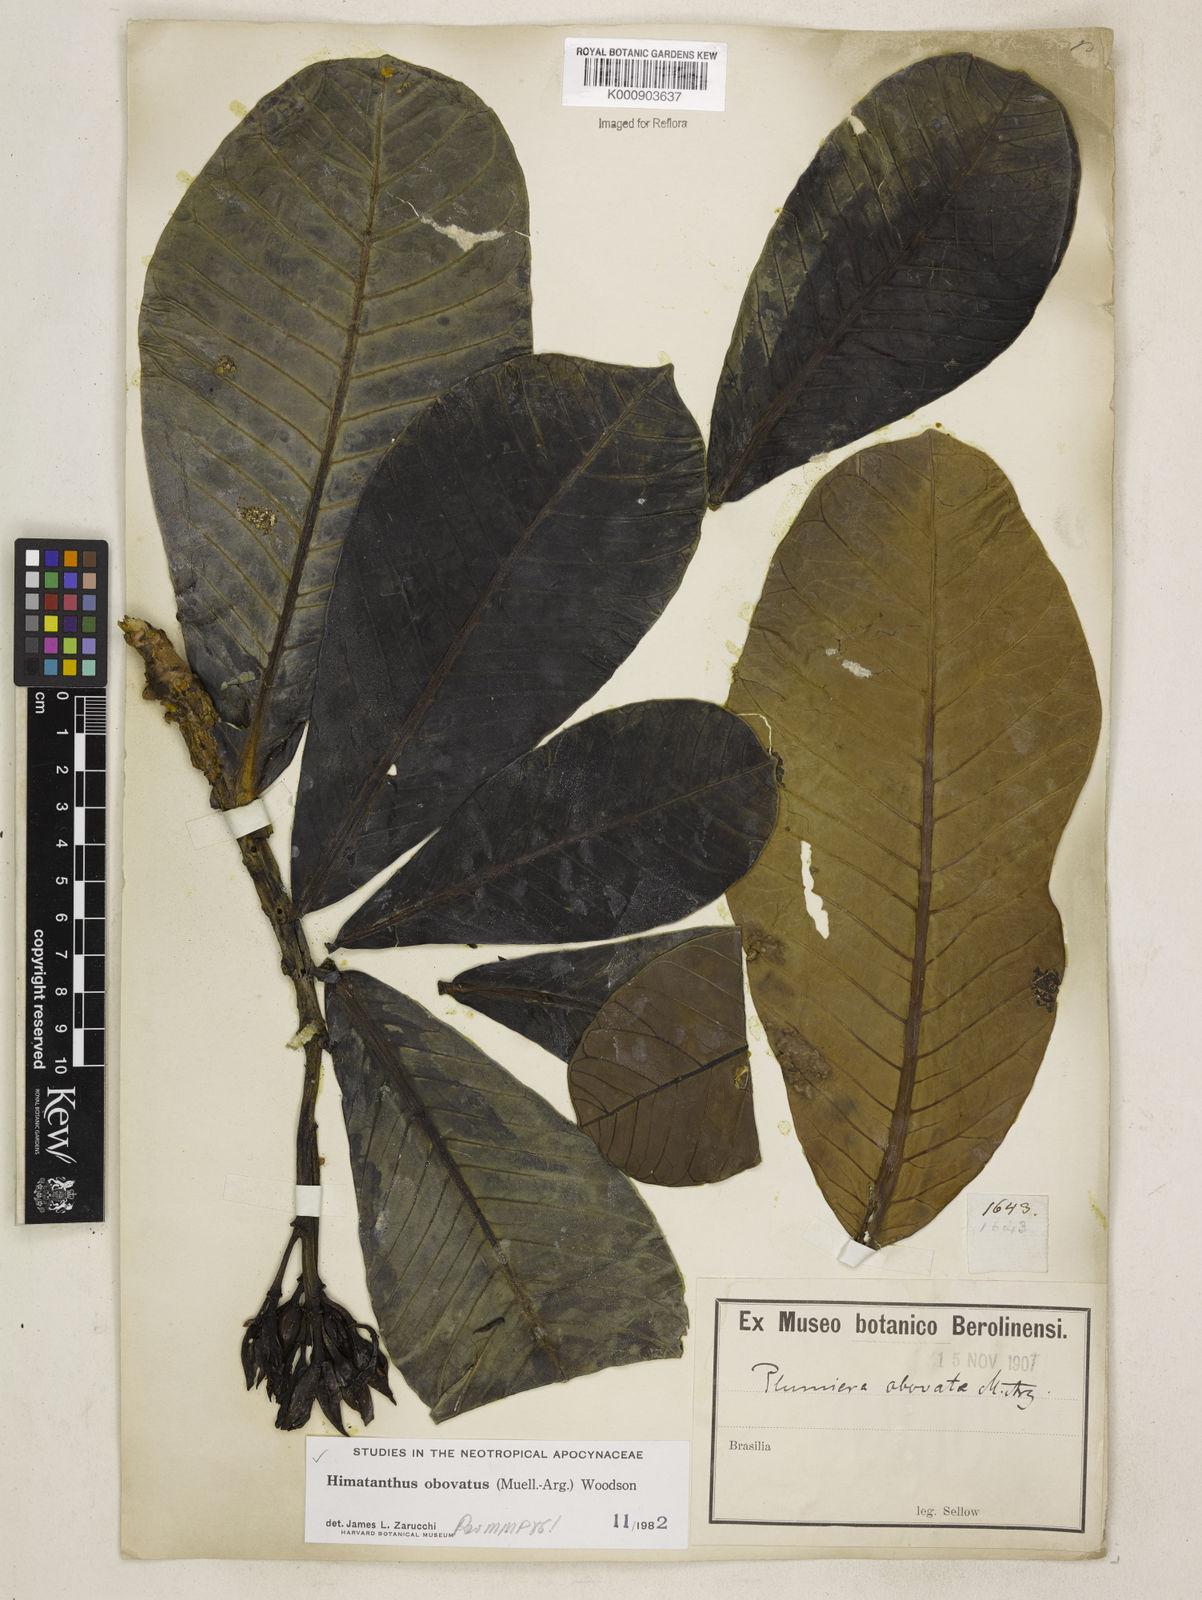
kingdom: Plantae
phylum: Tracheophyta
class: Magnoliopsida
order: Gentianales
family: Apocynaceae
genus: Himatanthus
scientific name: Himatanthus
